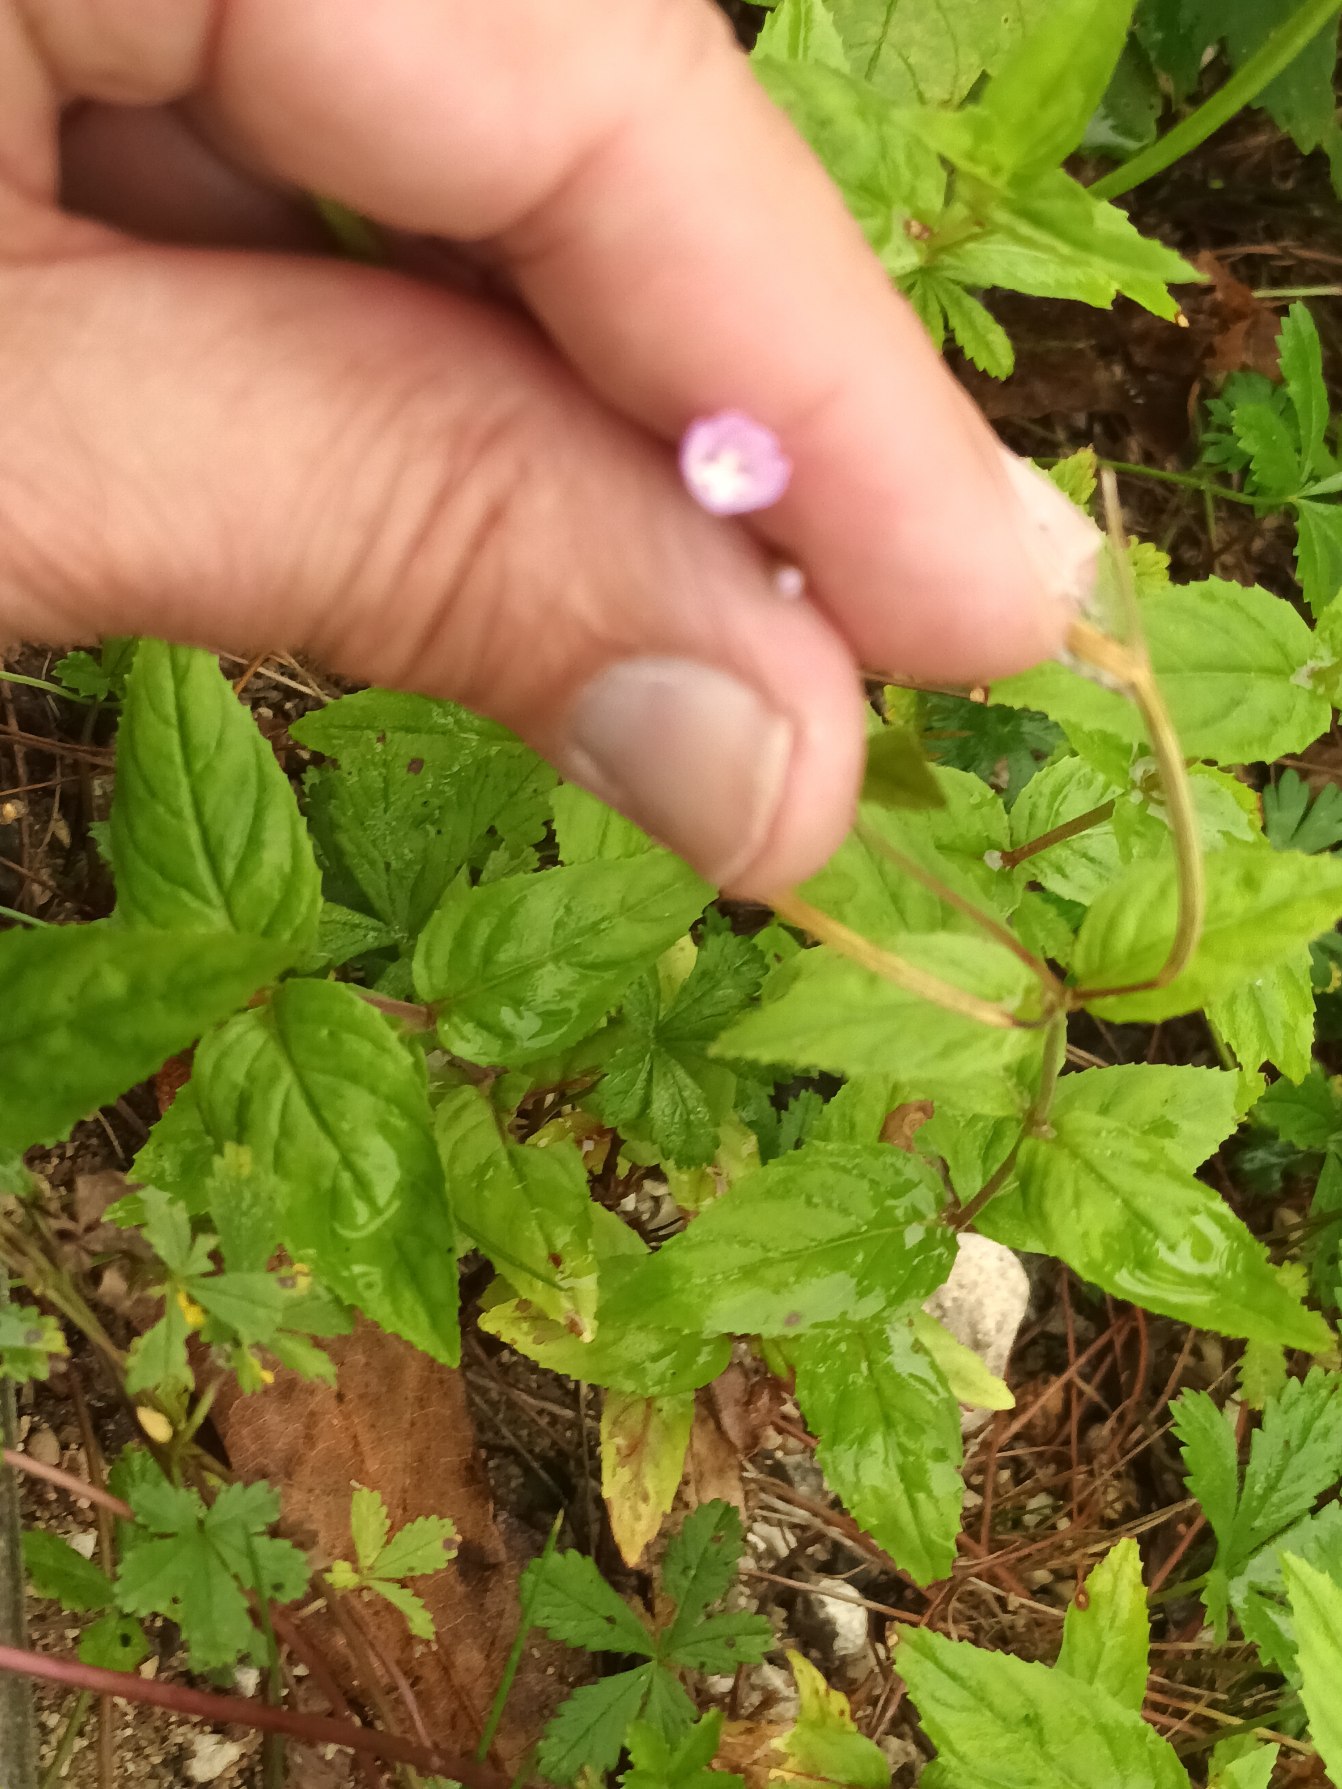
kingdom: Plantae
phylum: Tracheophyta
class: Magnoliopsida
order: Myrtales
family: Onagraceae
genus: Epilobium
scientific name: Epilobium montanum
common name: Glat dueurt
